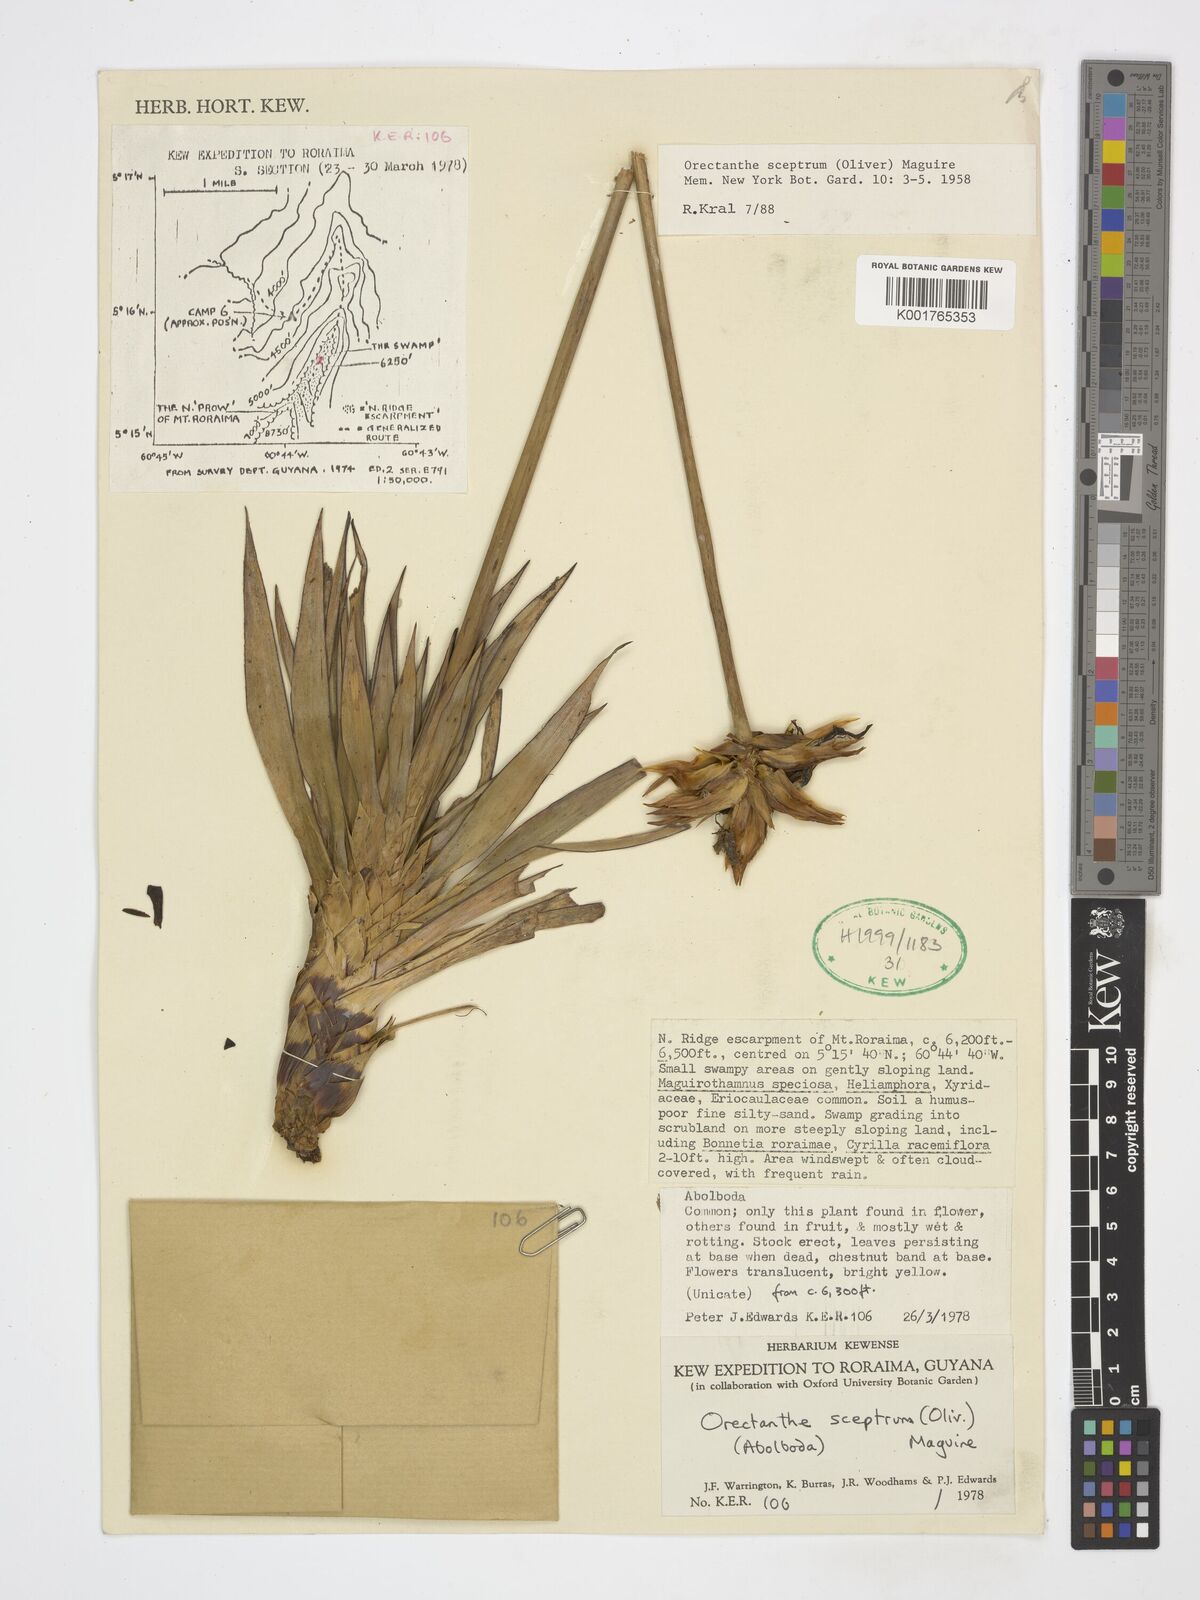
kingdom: Plantae
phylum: Tracheophyta
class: Liliopsida
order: Poales
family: Xyridaceae
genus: Orectanthe
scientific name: Orectanthe sceptrum
